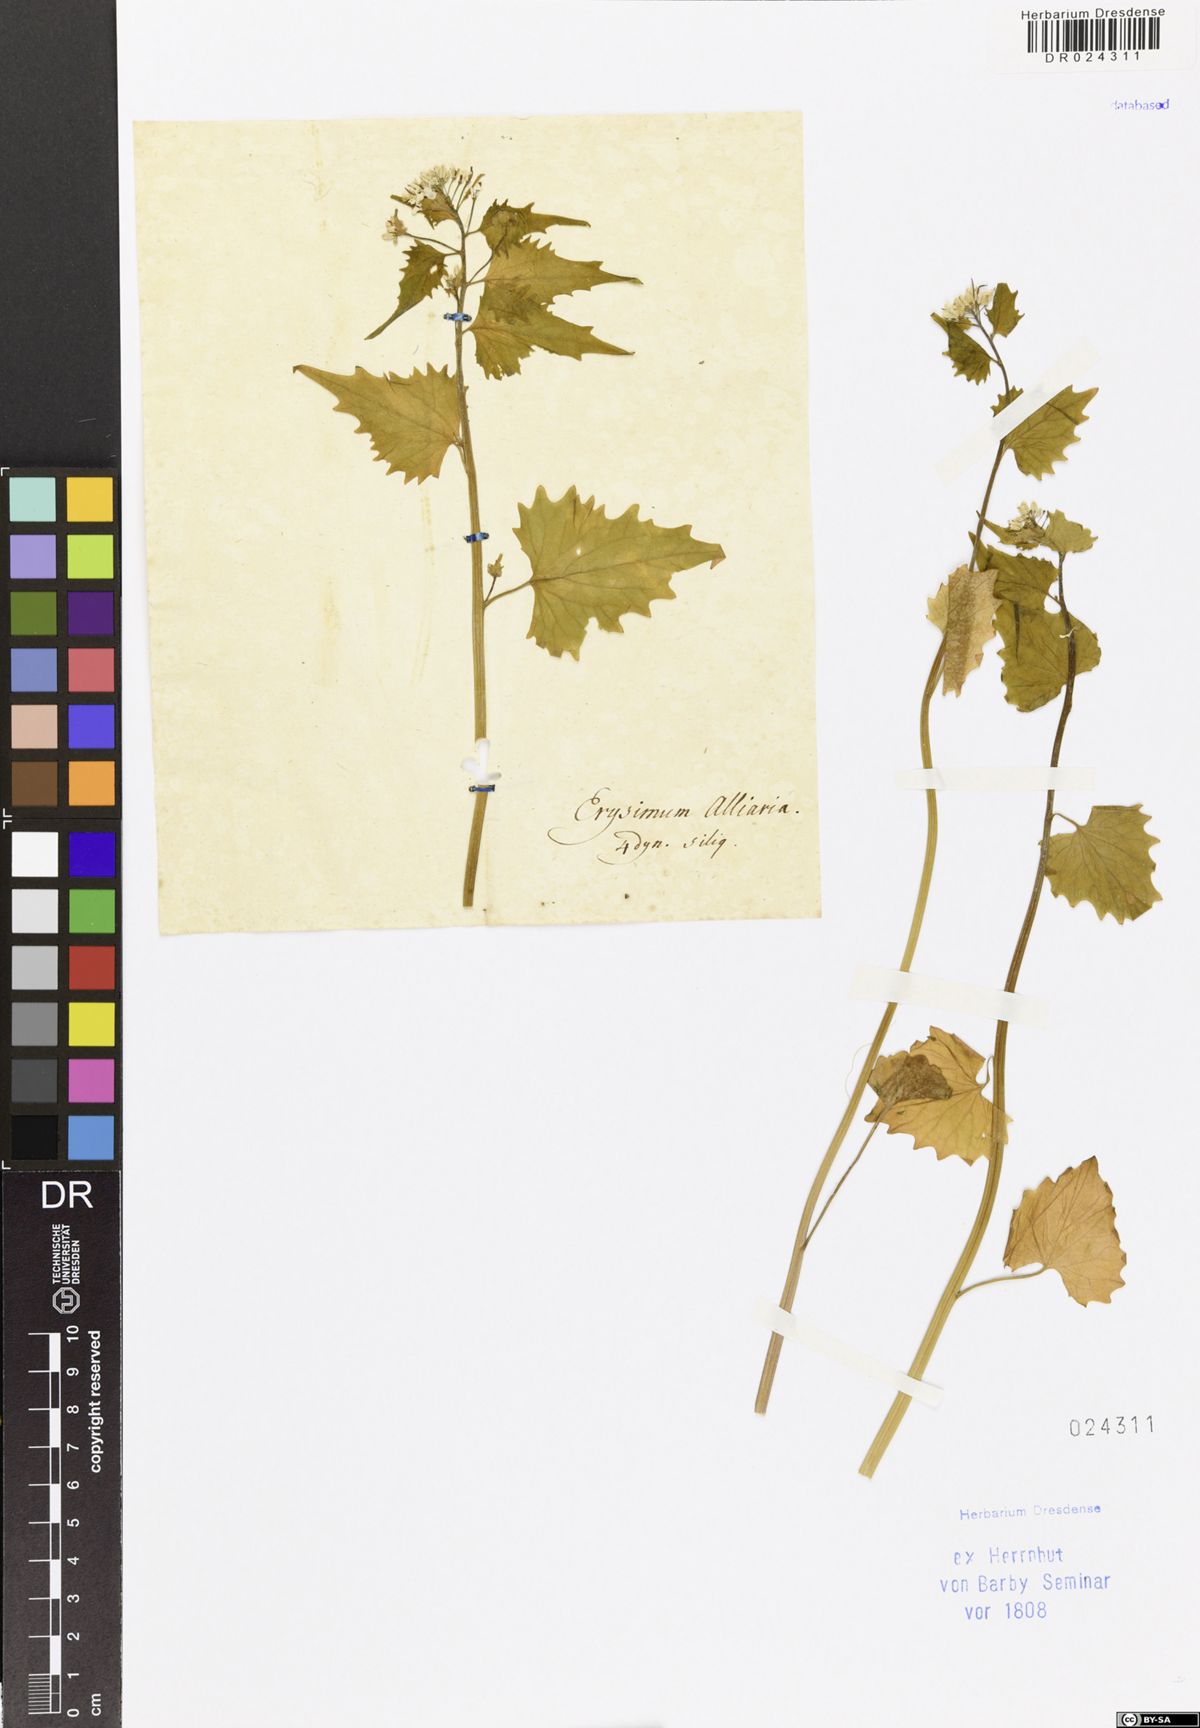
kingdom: Plantae
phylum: Tracheophyta
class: Magnoliopsida
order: Brassicales
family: Brassicaceae
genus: Alliaria
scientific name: Alliaria petiolata
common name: Garlic mustard
